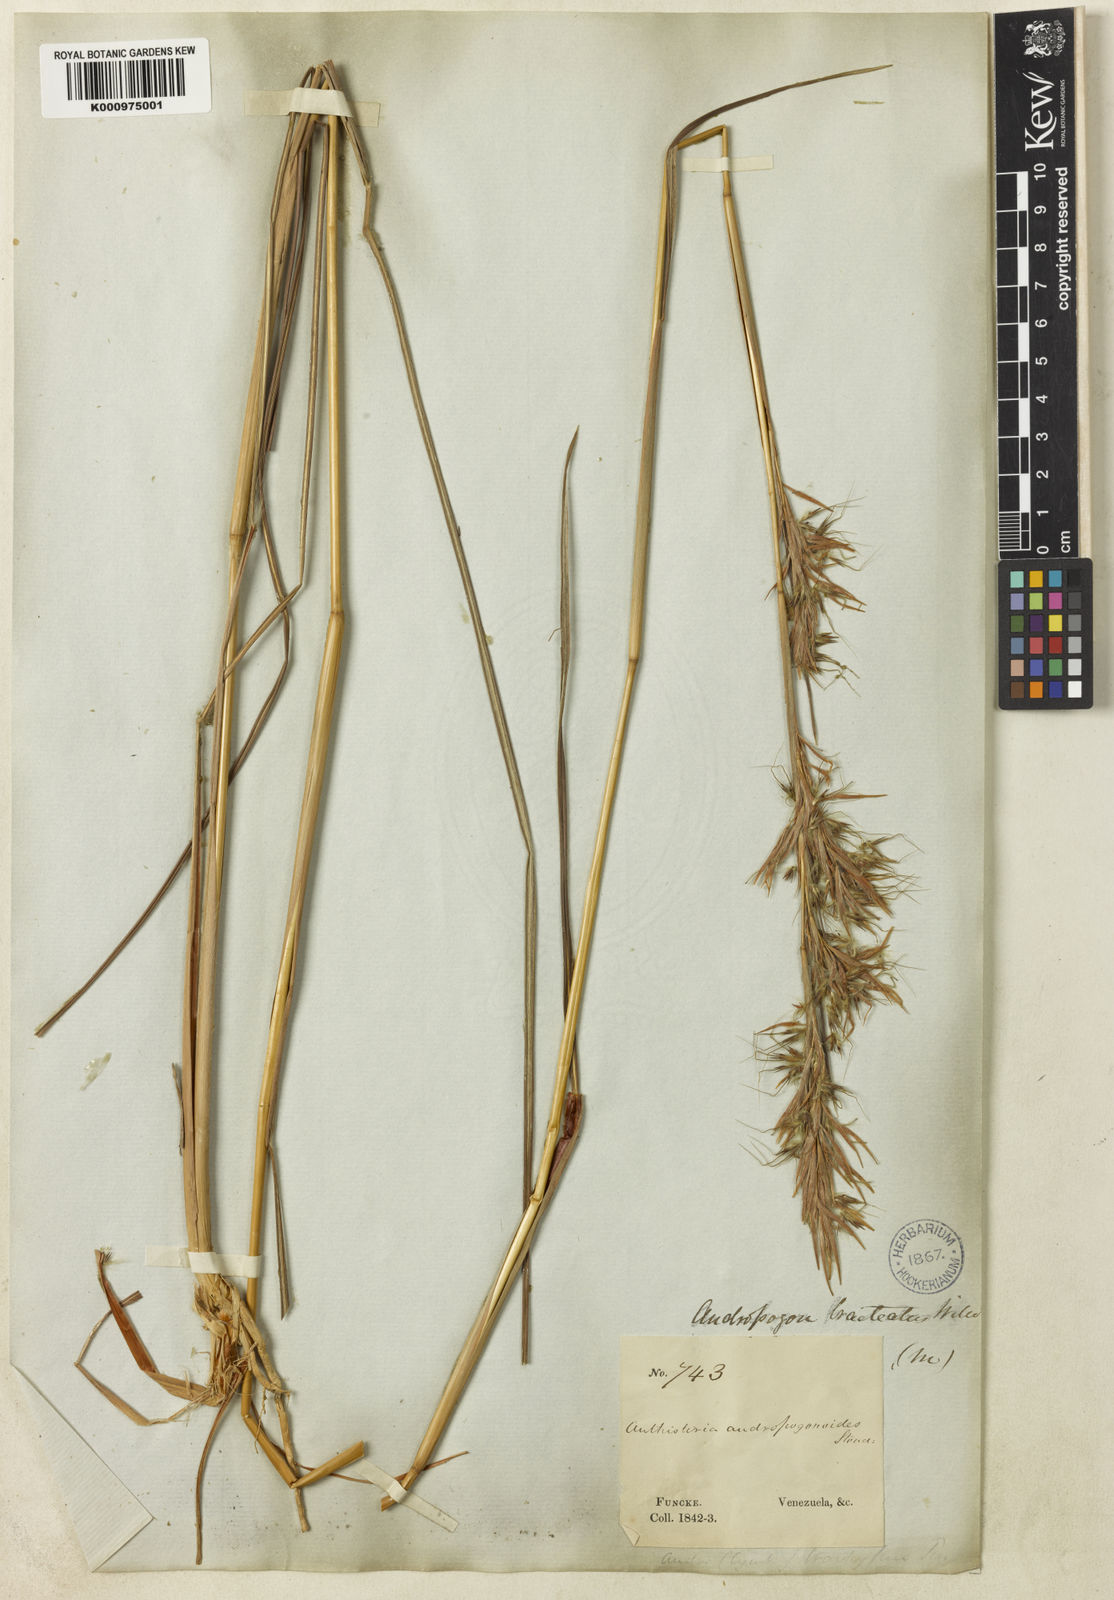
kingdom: Plantae
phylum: Tracheophyta
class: Liliopsida
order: Poales
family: Poaceae
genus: Hyparrhenia
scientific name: Hyparrhenia bracteata
